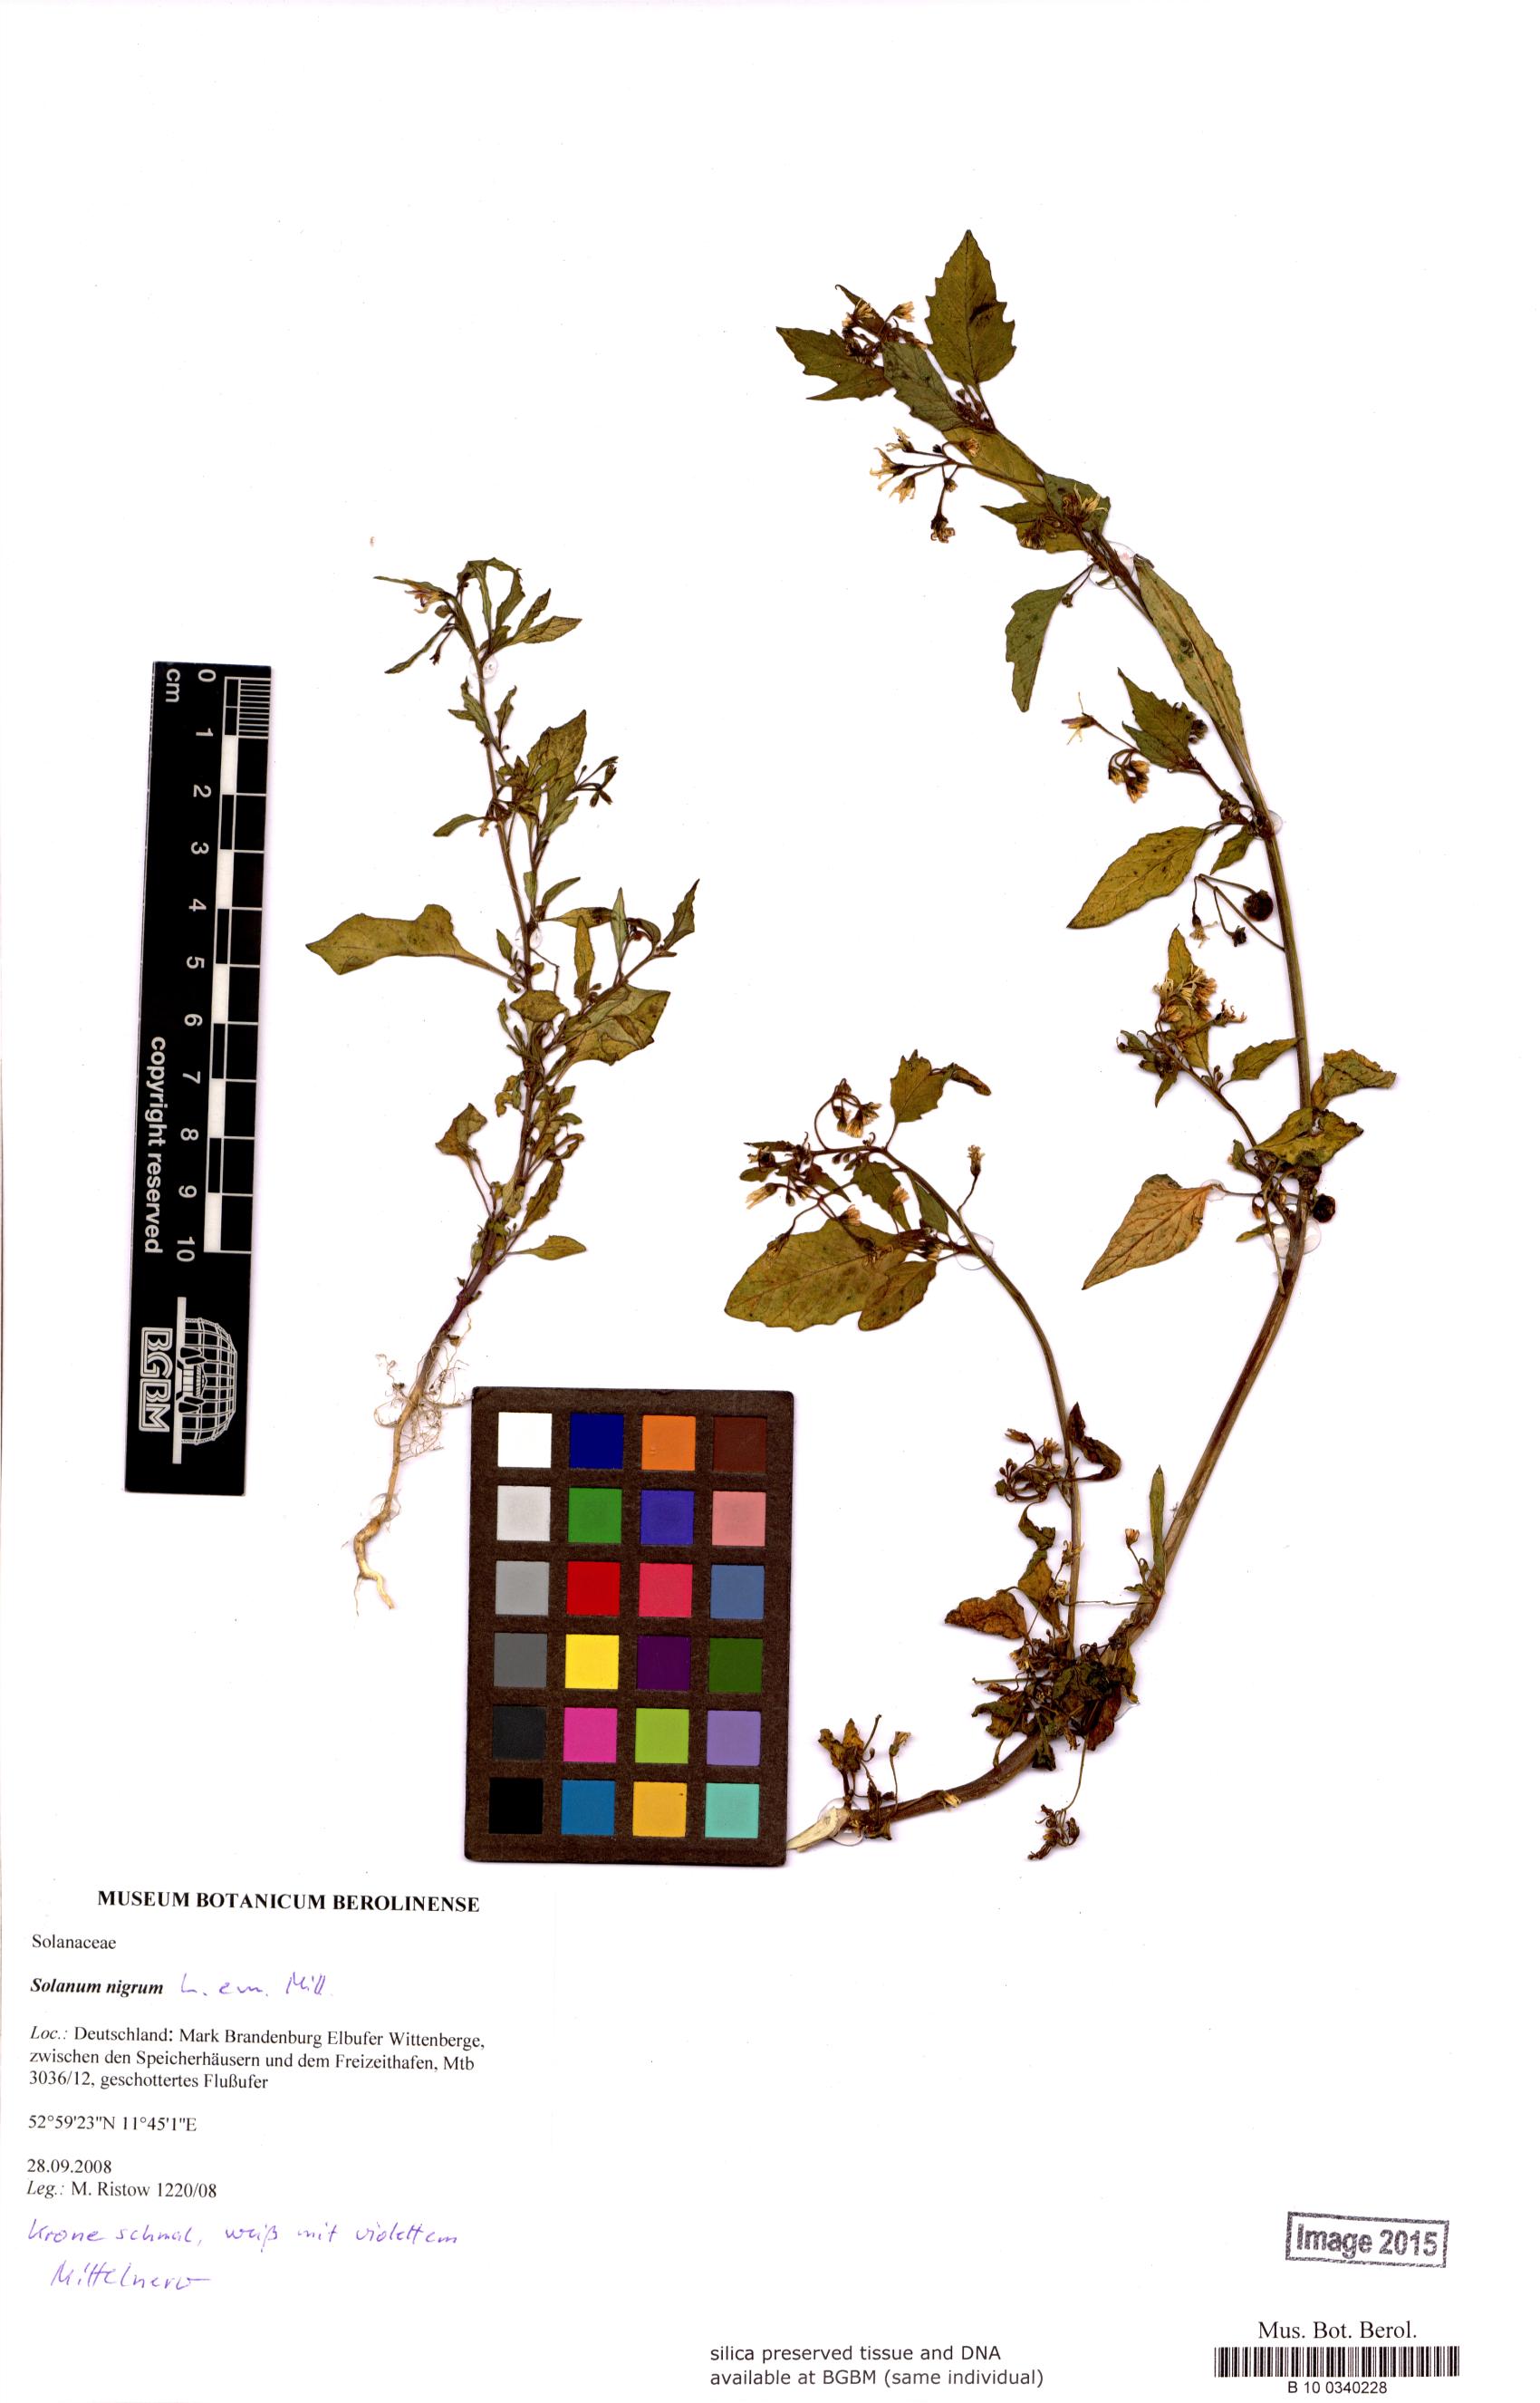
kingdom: Plantae
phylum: Tracheophyta
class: Magnoliopsida
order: Solanales
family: Solanaceae
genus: Solanum
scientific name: Solanum nigrum
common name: Black nightshade
